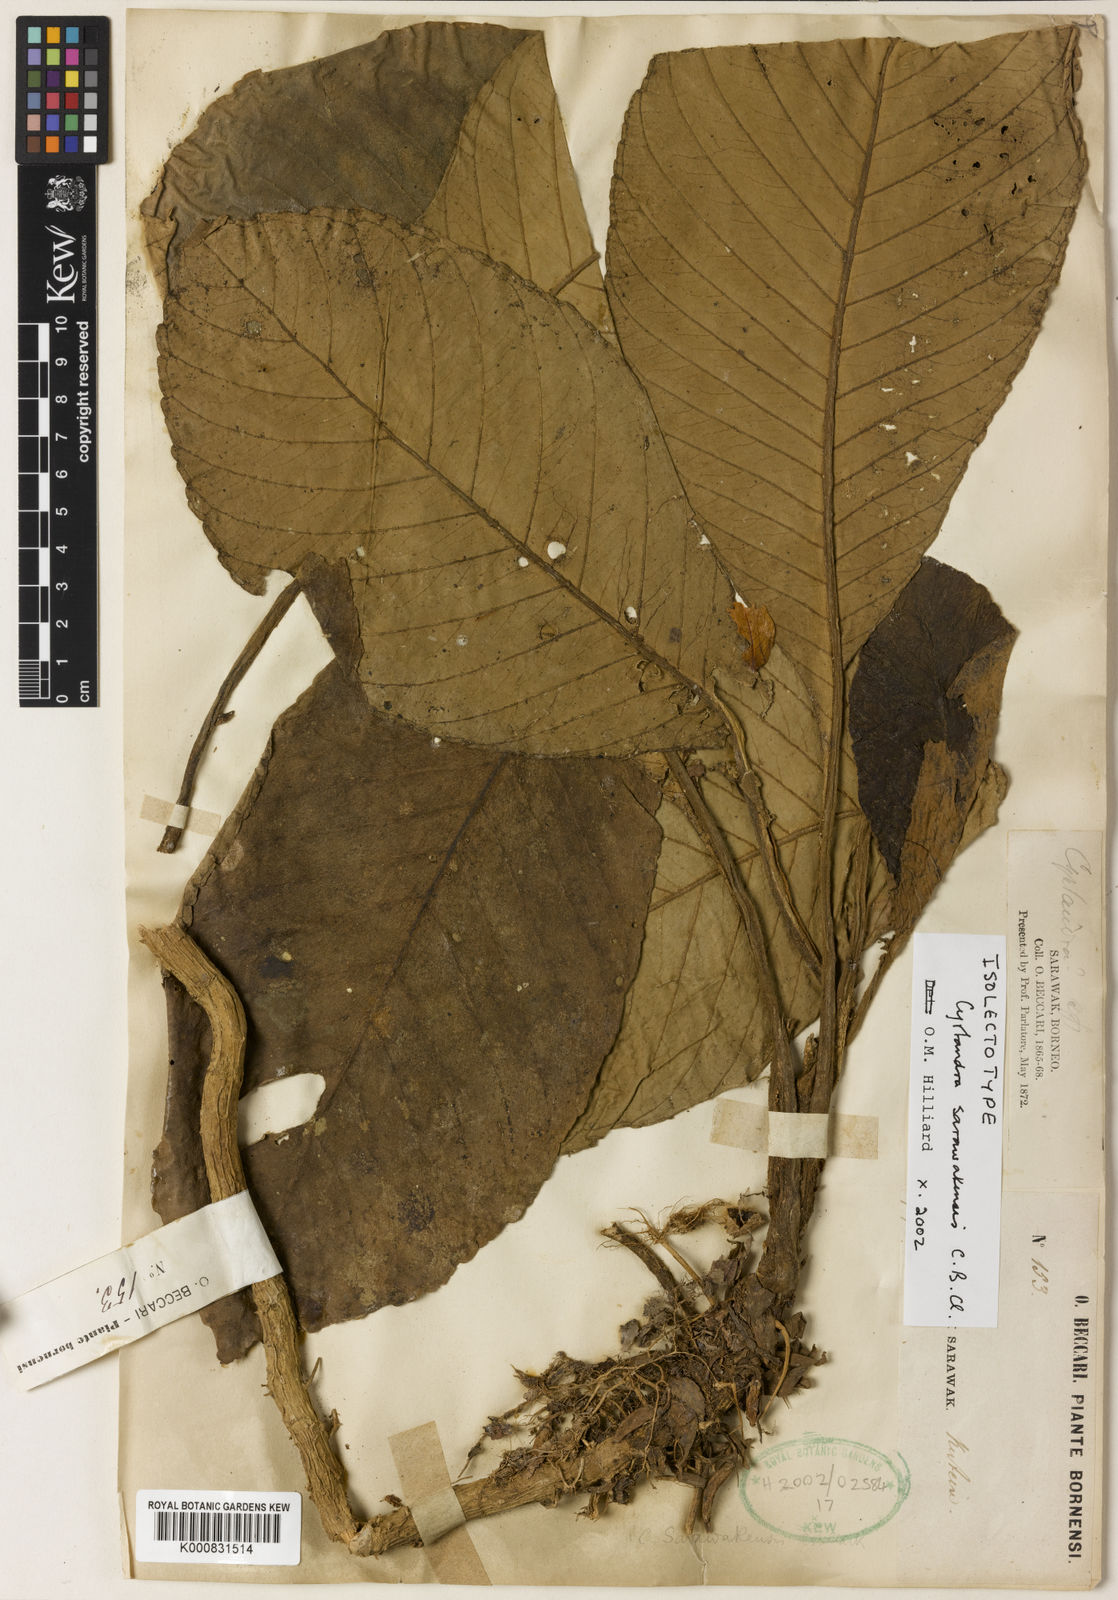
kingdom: Plantae
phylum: Tracheophyta
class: Magnoliopsida
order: Lamiales
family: Gesneriaceae
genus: Cyrtandra
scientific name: Cyrtandra sarawakensis
